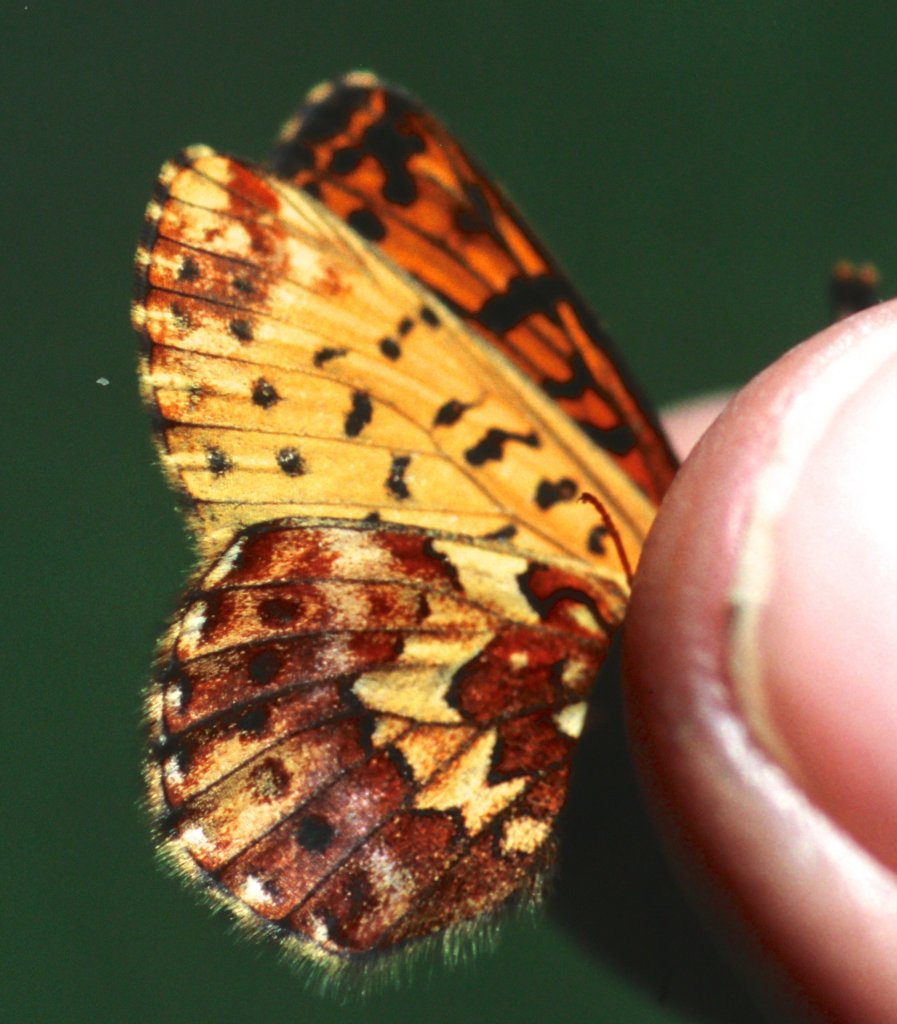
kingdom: Animalia
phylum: Arthropoda
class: Insecta
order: Lepidoptera
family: Nymphalidae
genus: Boloria
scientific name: Boloria chariclea
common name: Arctic Fritillary
